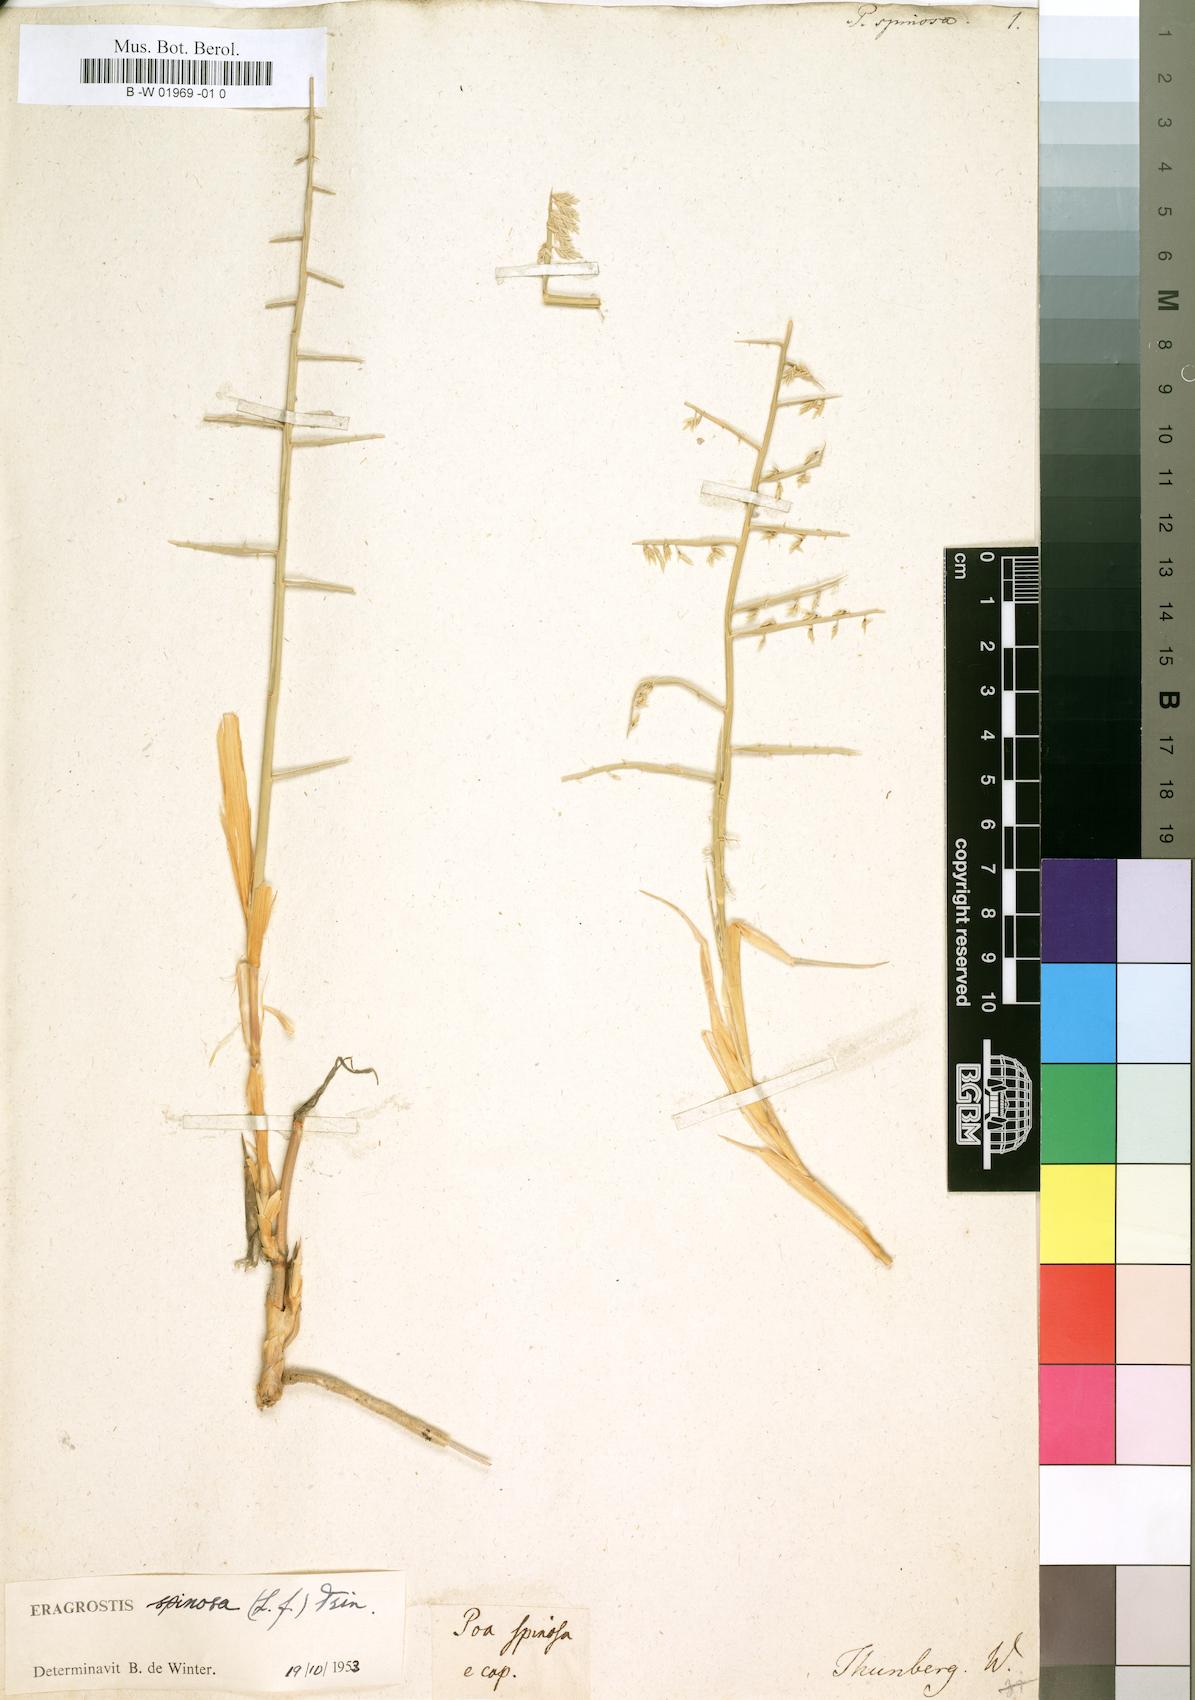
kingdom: Plantae
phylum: Tracheophyta
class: Liliopsida
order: Poales
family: Poaceae
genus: Cladoraphis
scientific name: Cladoraphis spinosa
